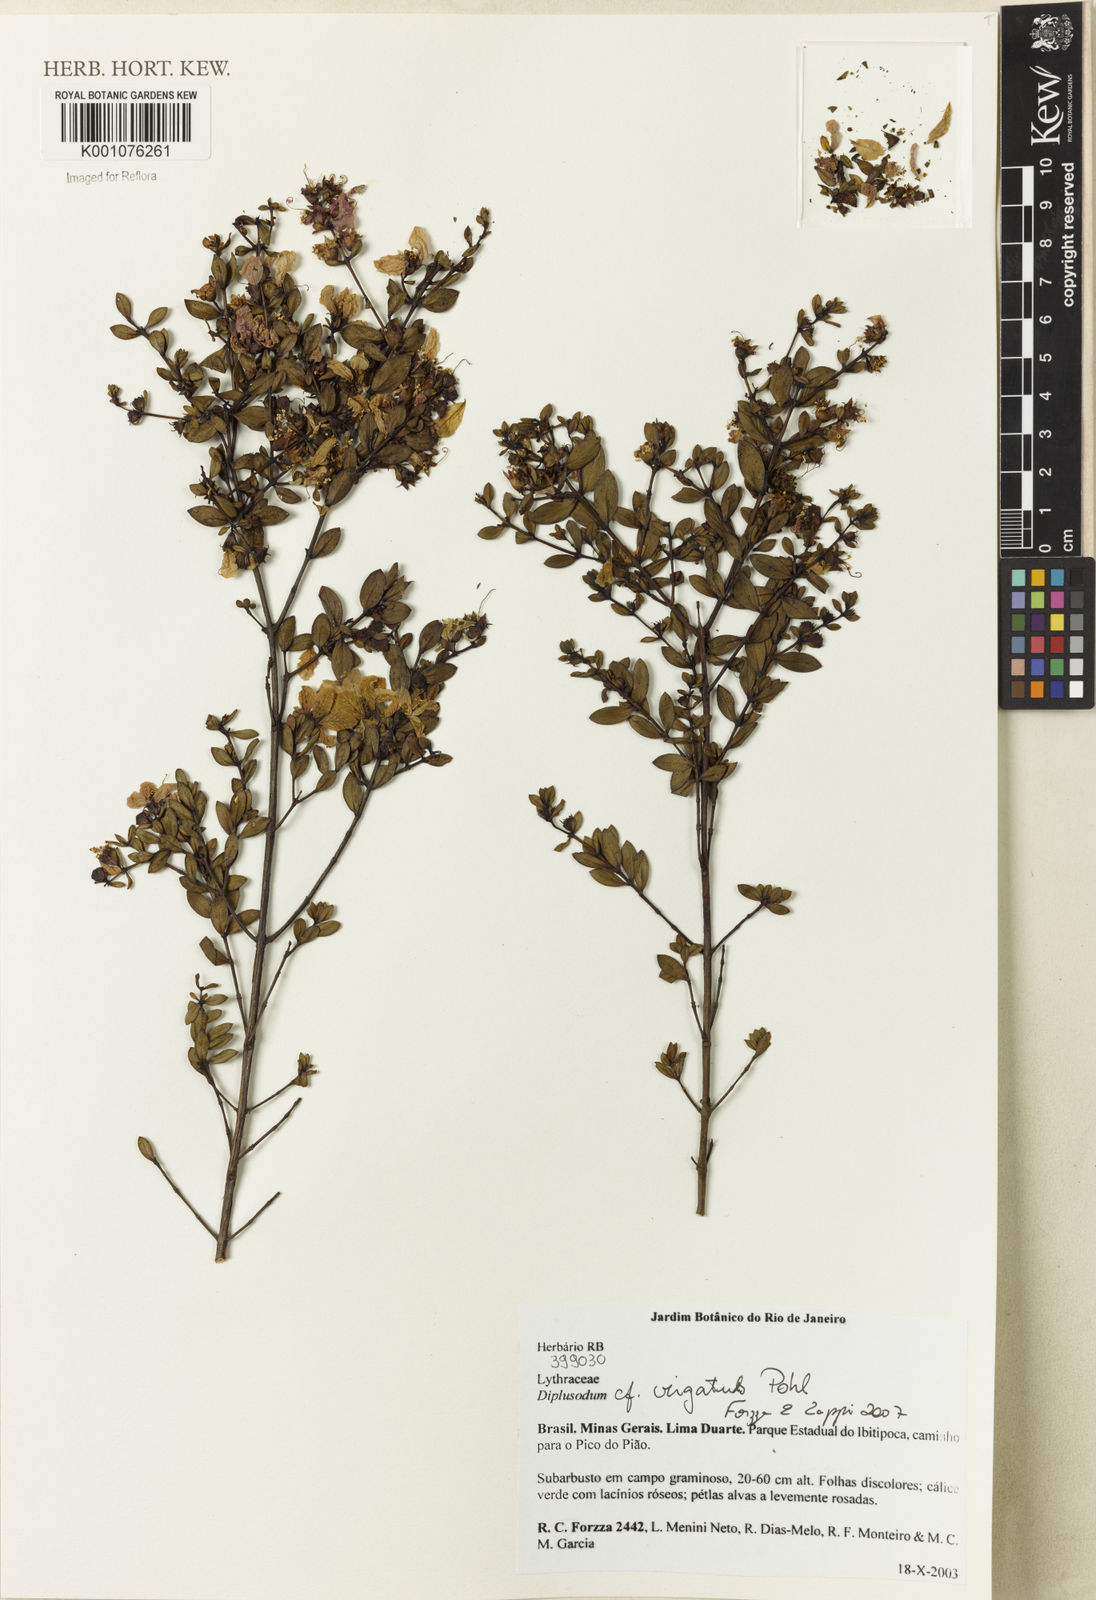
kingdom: Plantae
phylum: Tracheophyta
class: Magnoliopsida
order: Myrtales
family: Lythraceae
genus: Diplusodon
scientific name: Diplusodon virgatus
